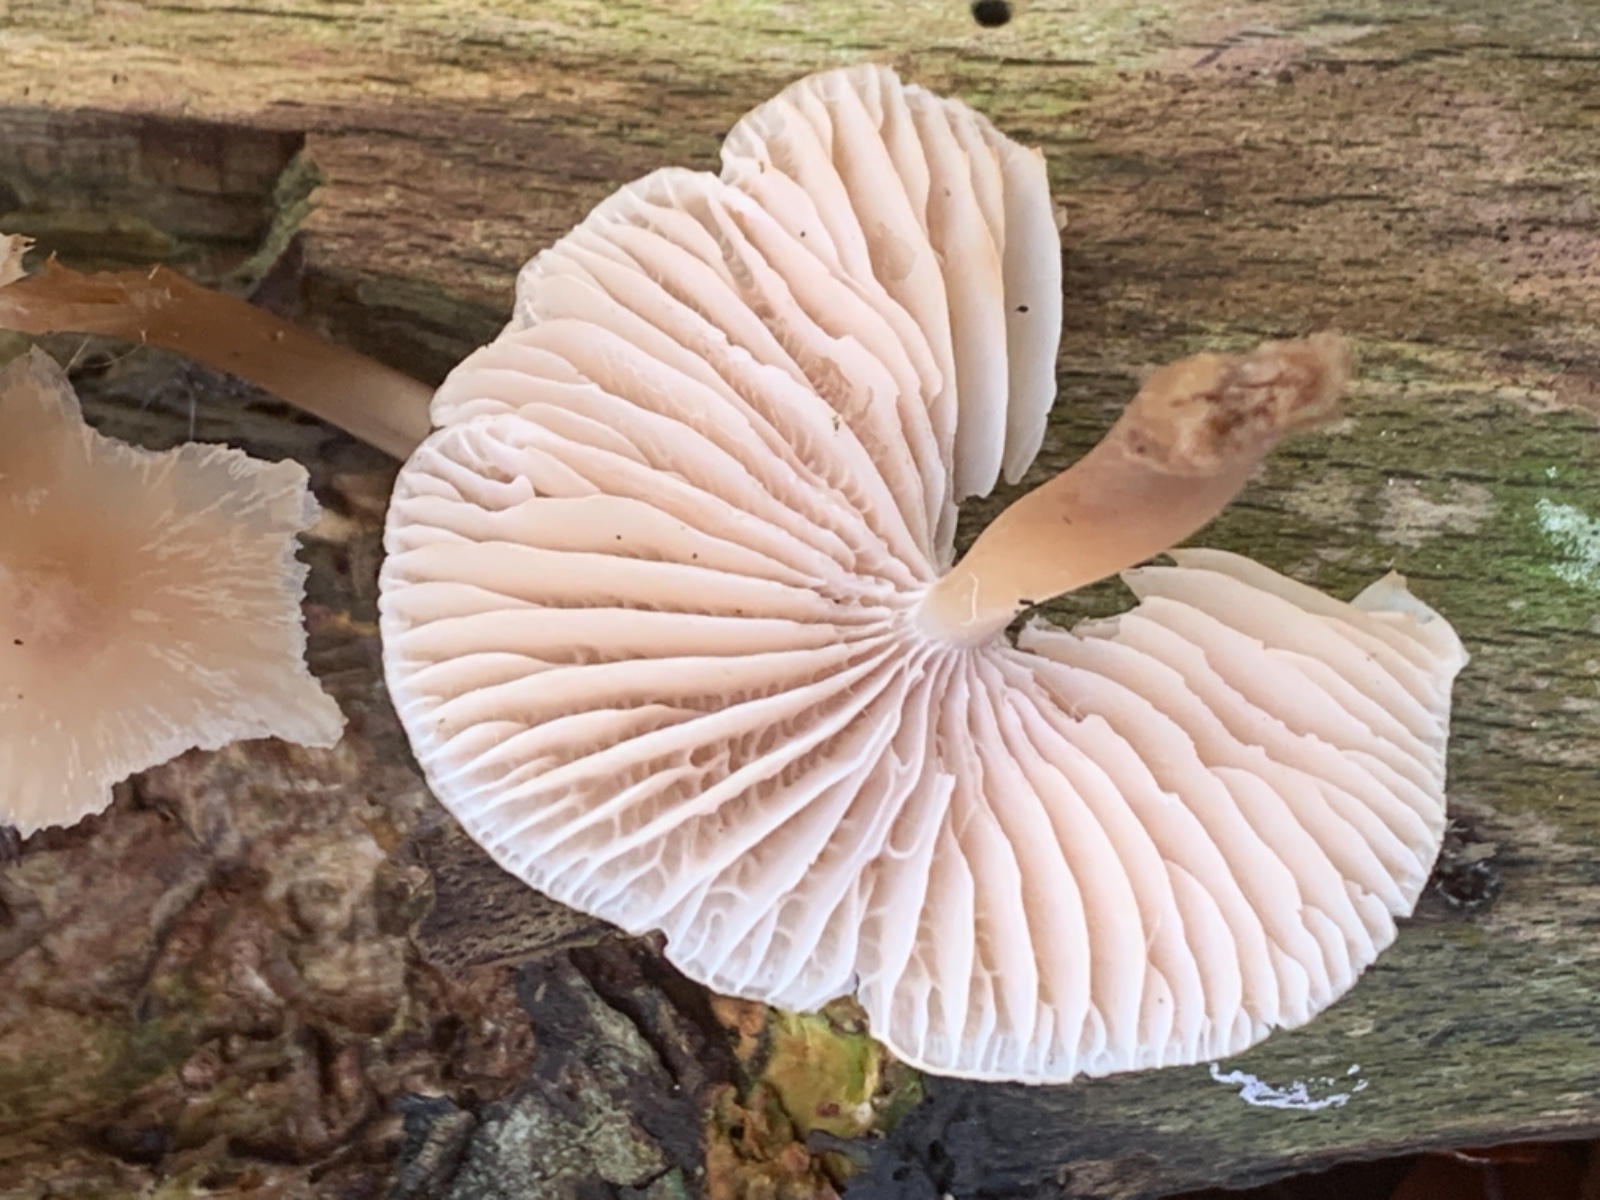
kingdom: Fungi
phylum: Basidiomycota
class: Agaricomycetes
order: Agaricales
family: Mycenaceae
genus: Mycena
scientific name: Mycena galericulata
